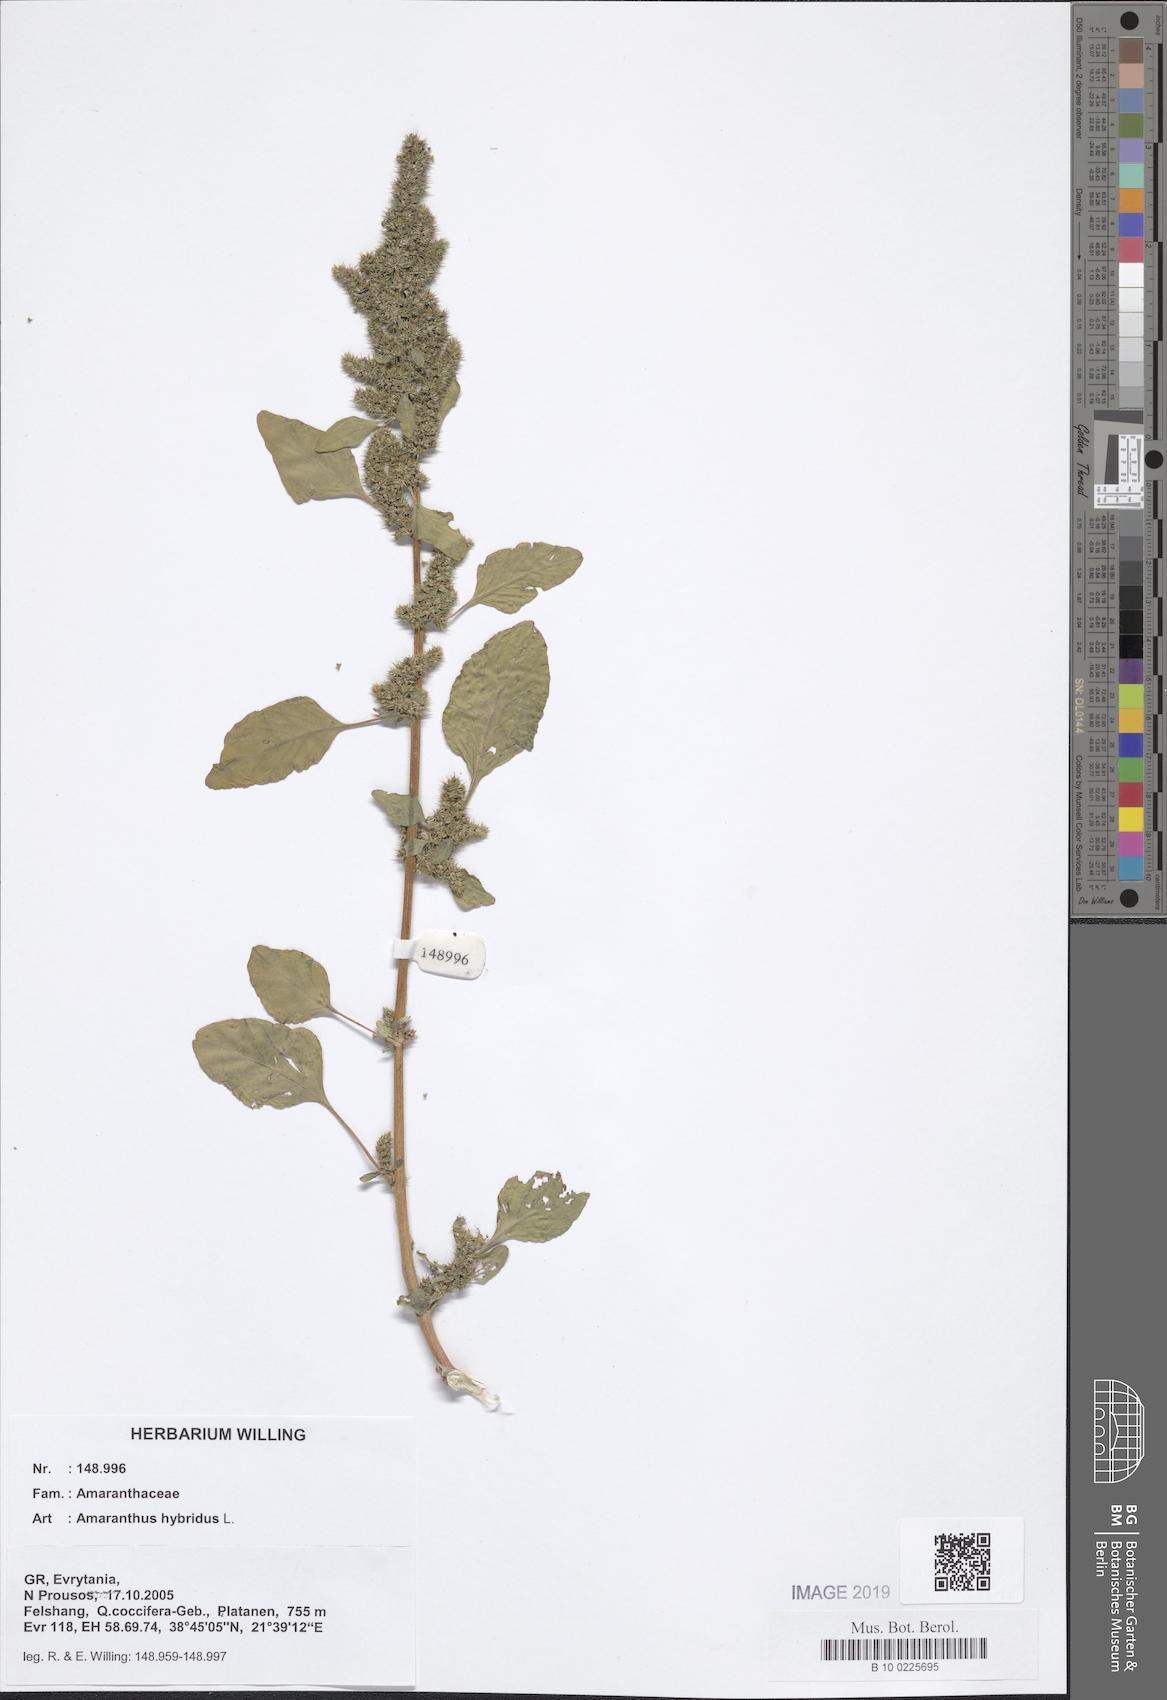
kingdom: Plantae
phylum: Tracheophyta
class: Magnoliopsida
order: Caryophyllales
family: Amaranthaceae
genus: Amaranthus
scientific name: Amaranthus hybridus
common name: Green amaranth
